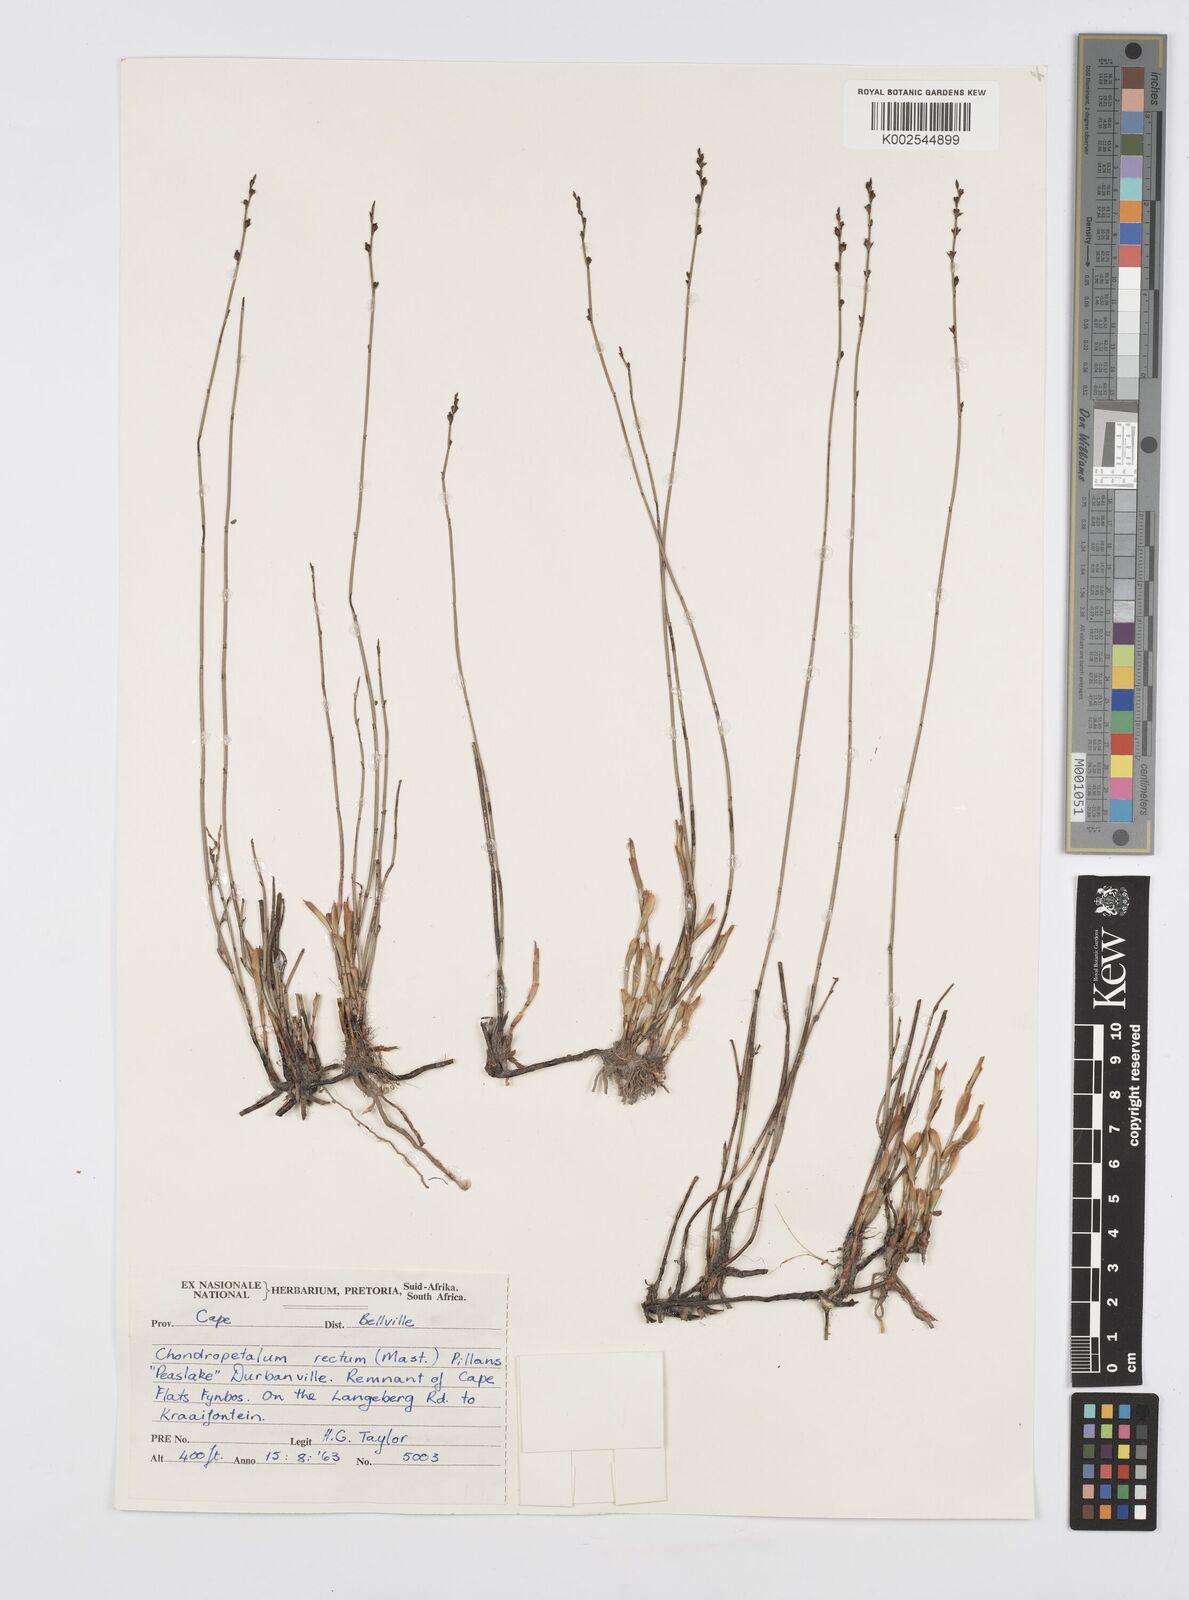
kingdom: Plantae
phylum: Tracheophyta
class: Liliopsida
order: Poales
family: Restionaceae
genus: Elegia
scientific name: Elegia recta
